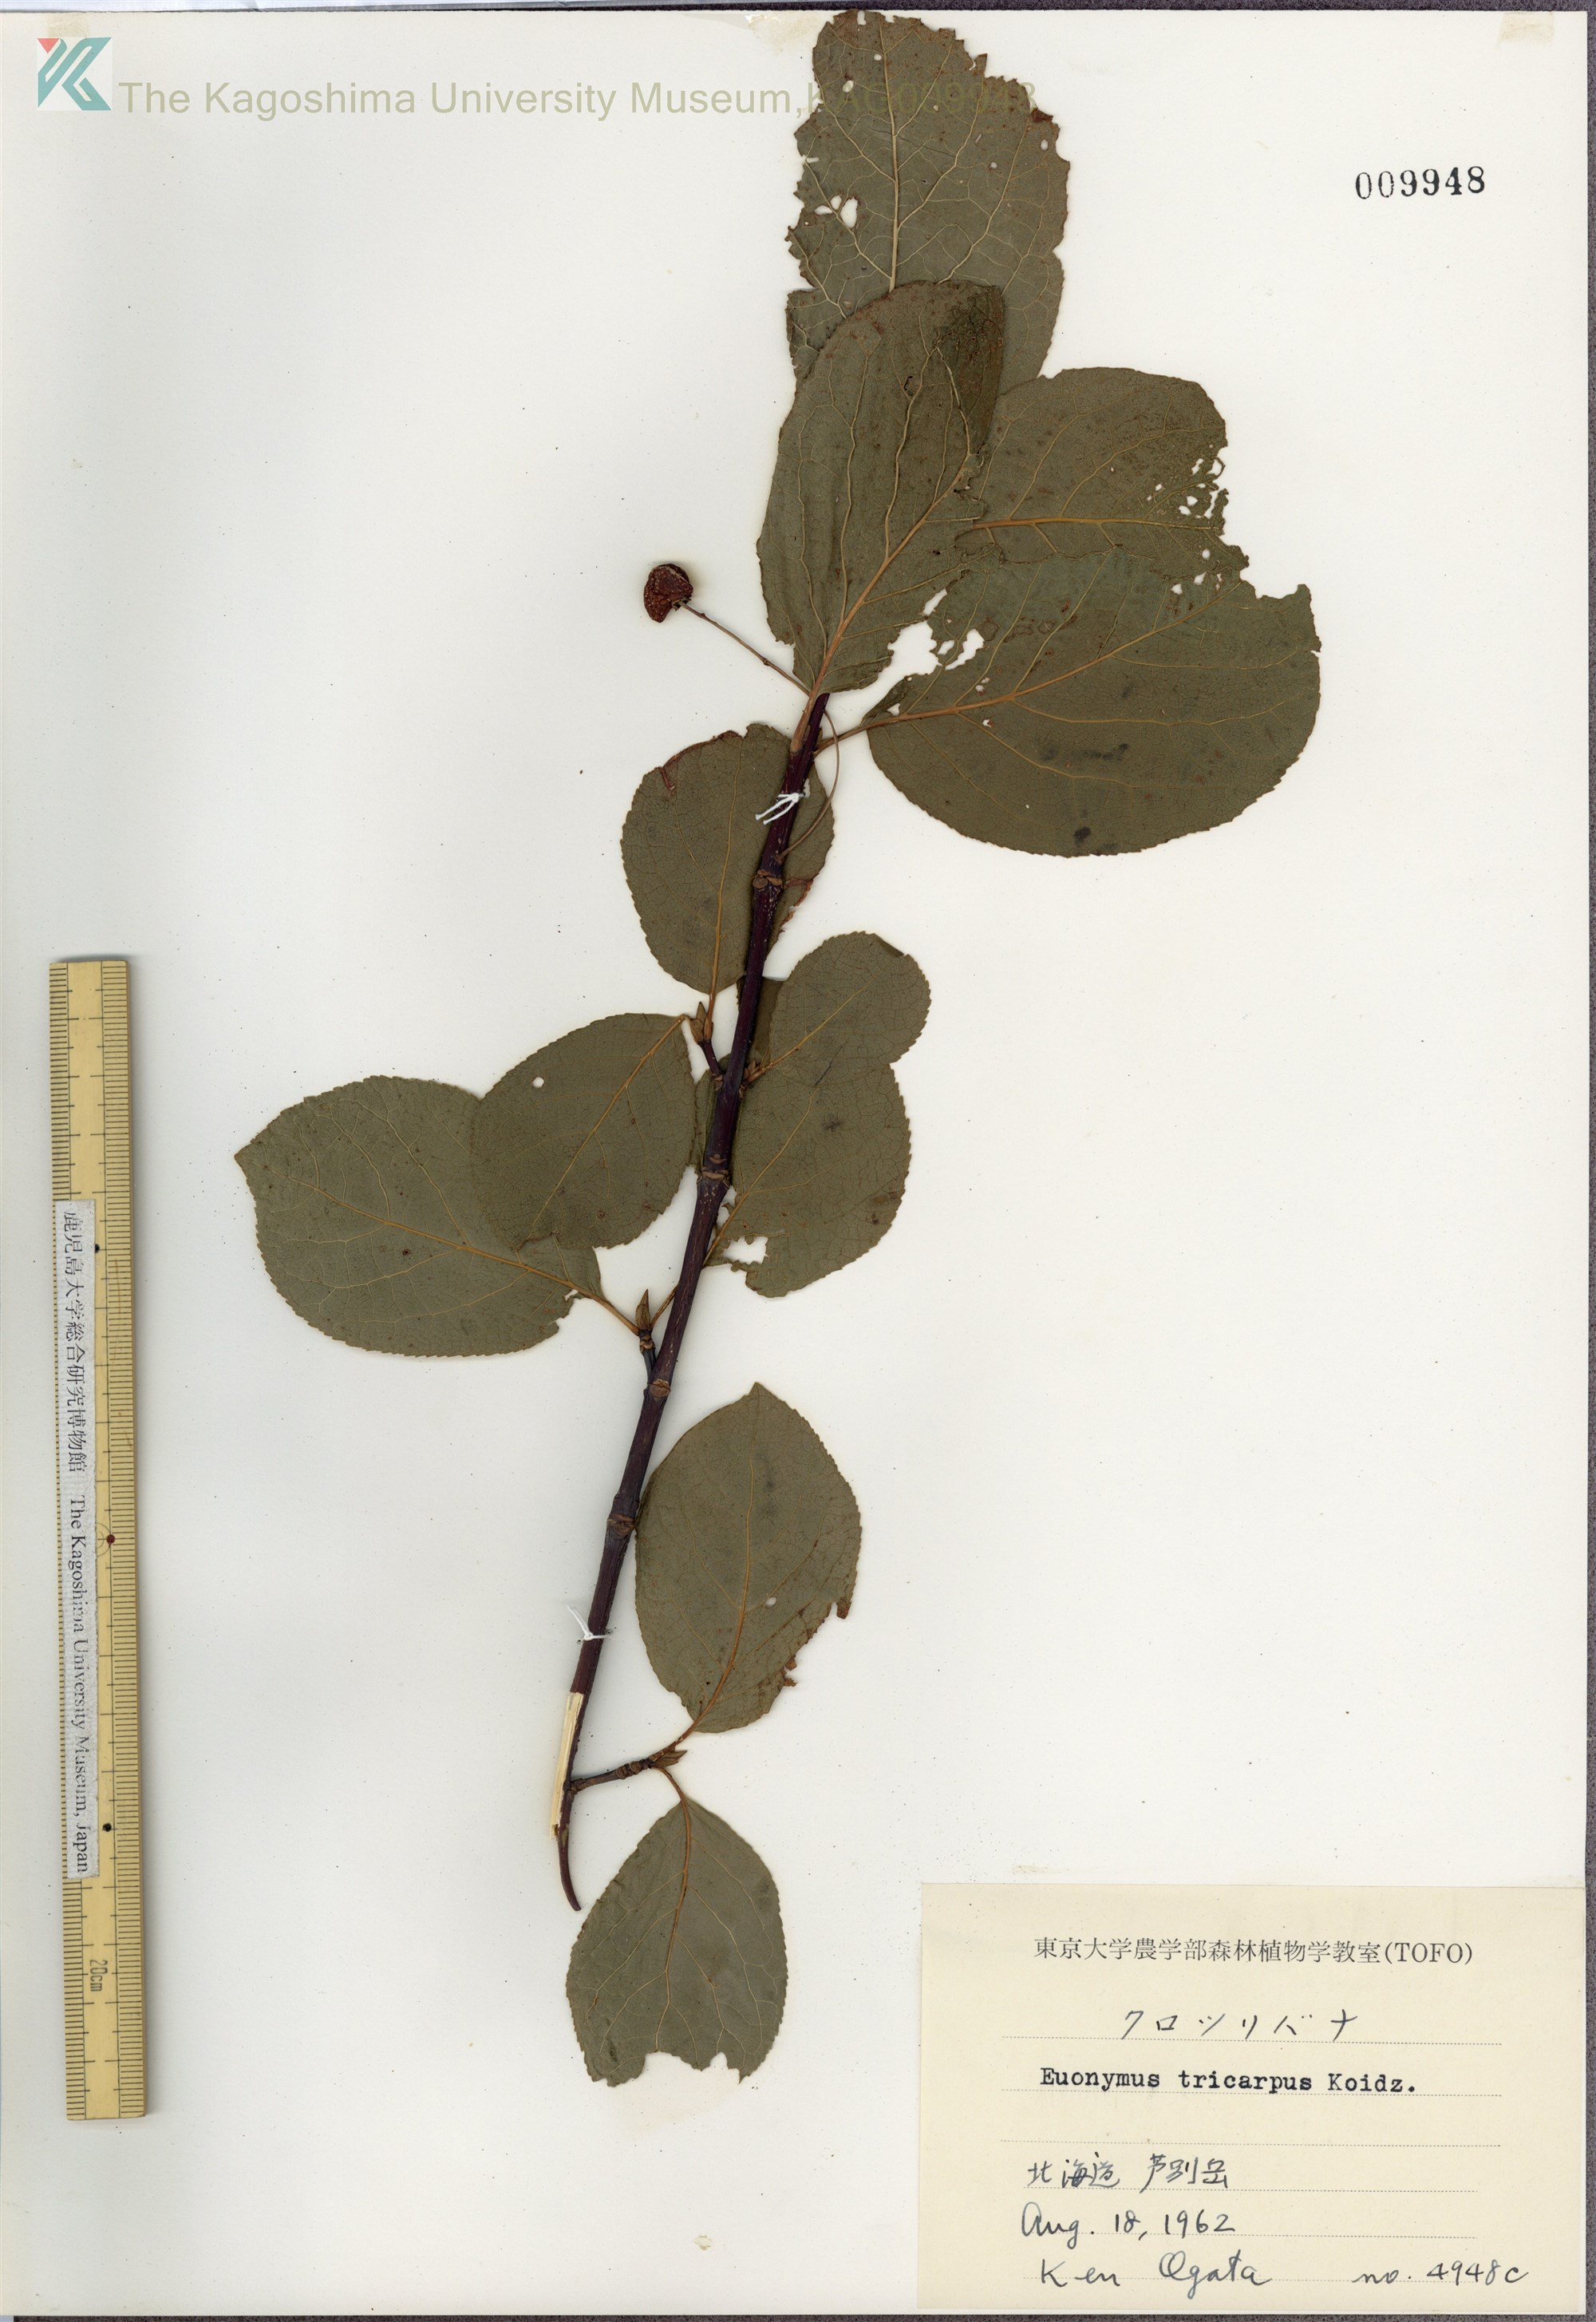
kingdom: Plantae
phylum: Tracheophyta
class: Magnoliopsida
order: Celastrales
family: Celastraceae
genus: Euonymus
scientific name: Euonymus sachalinensis
